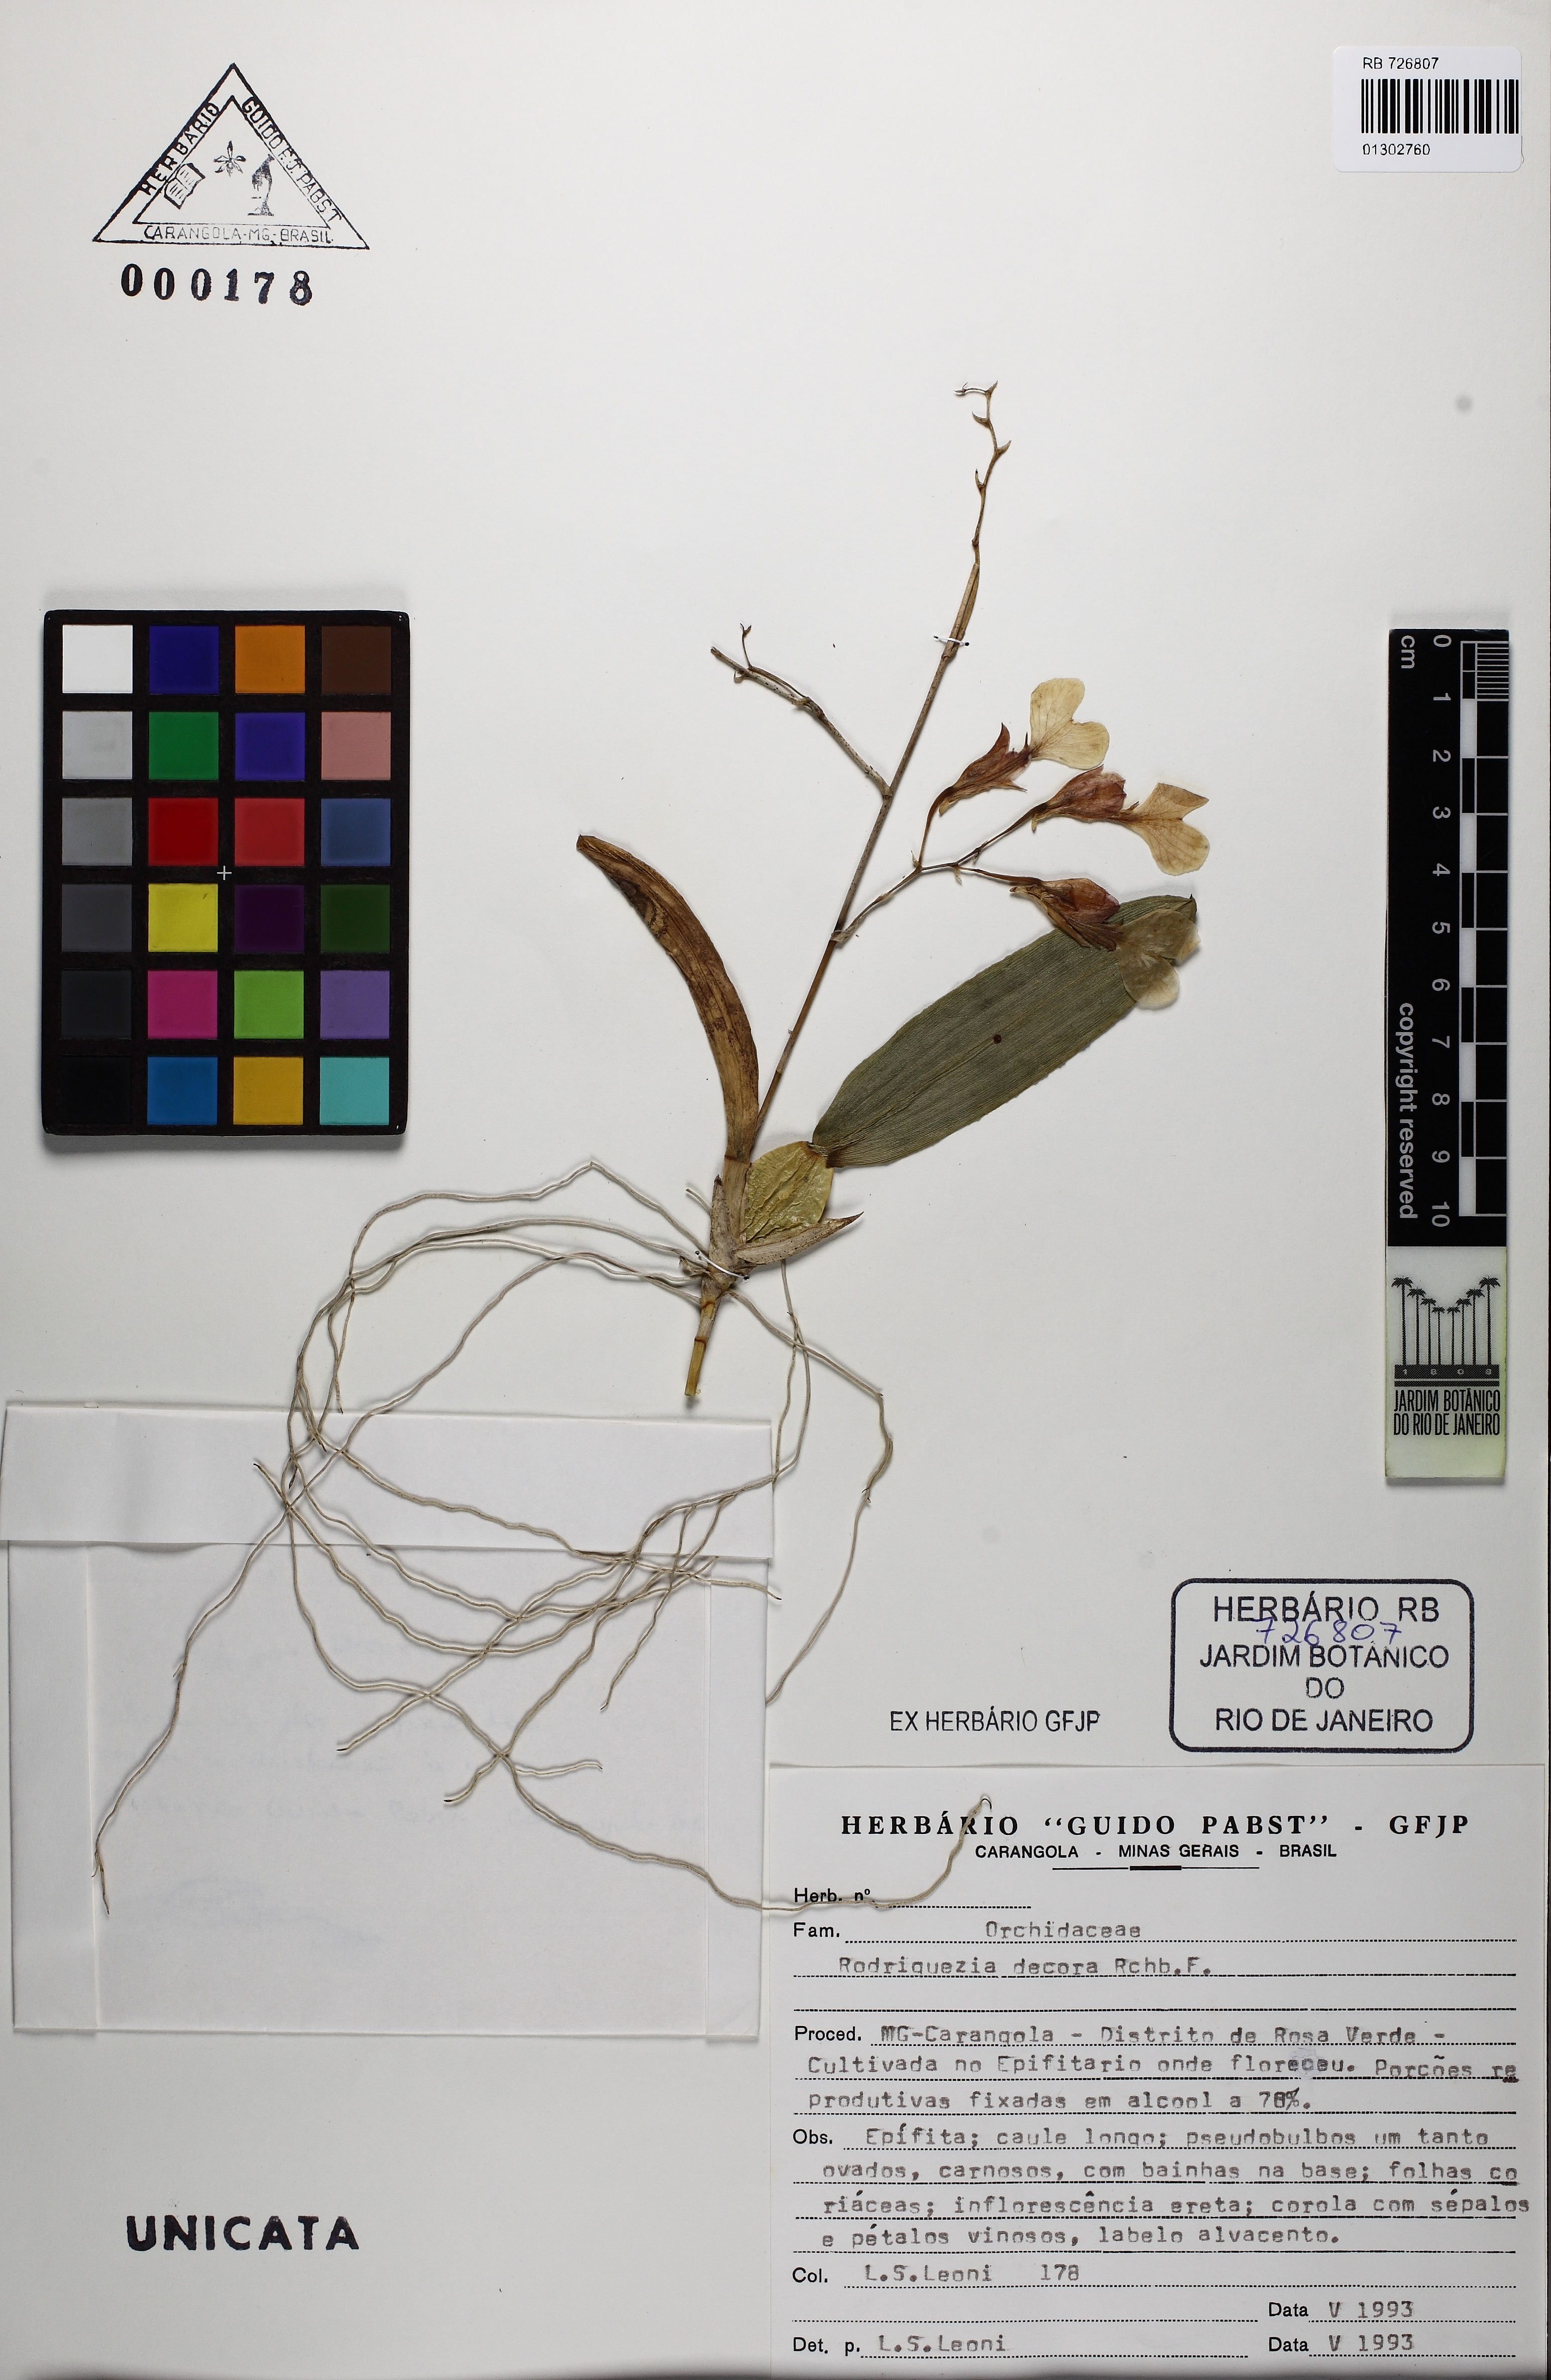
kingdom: Plantae
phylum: Tracheophyta
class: Liliopsida
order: Asparagales
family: Orchidaceae
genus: Rodriguezia
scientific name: Rodriguezia decora
